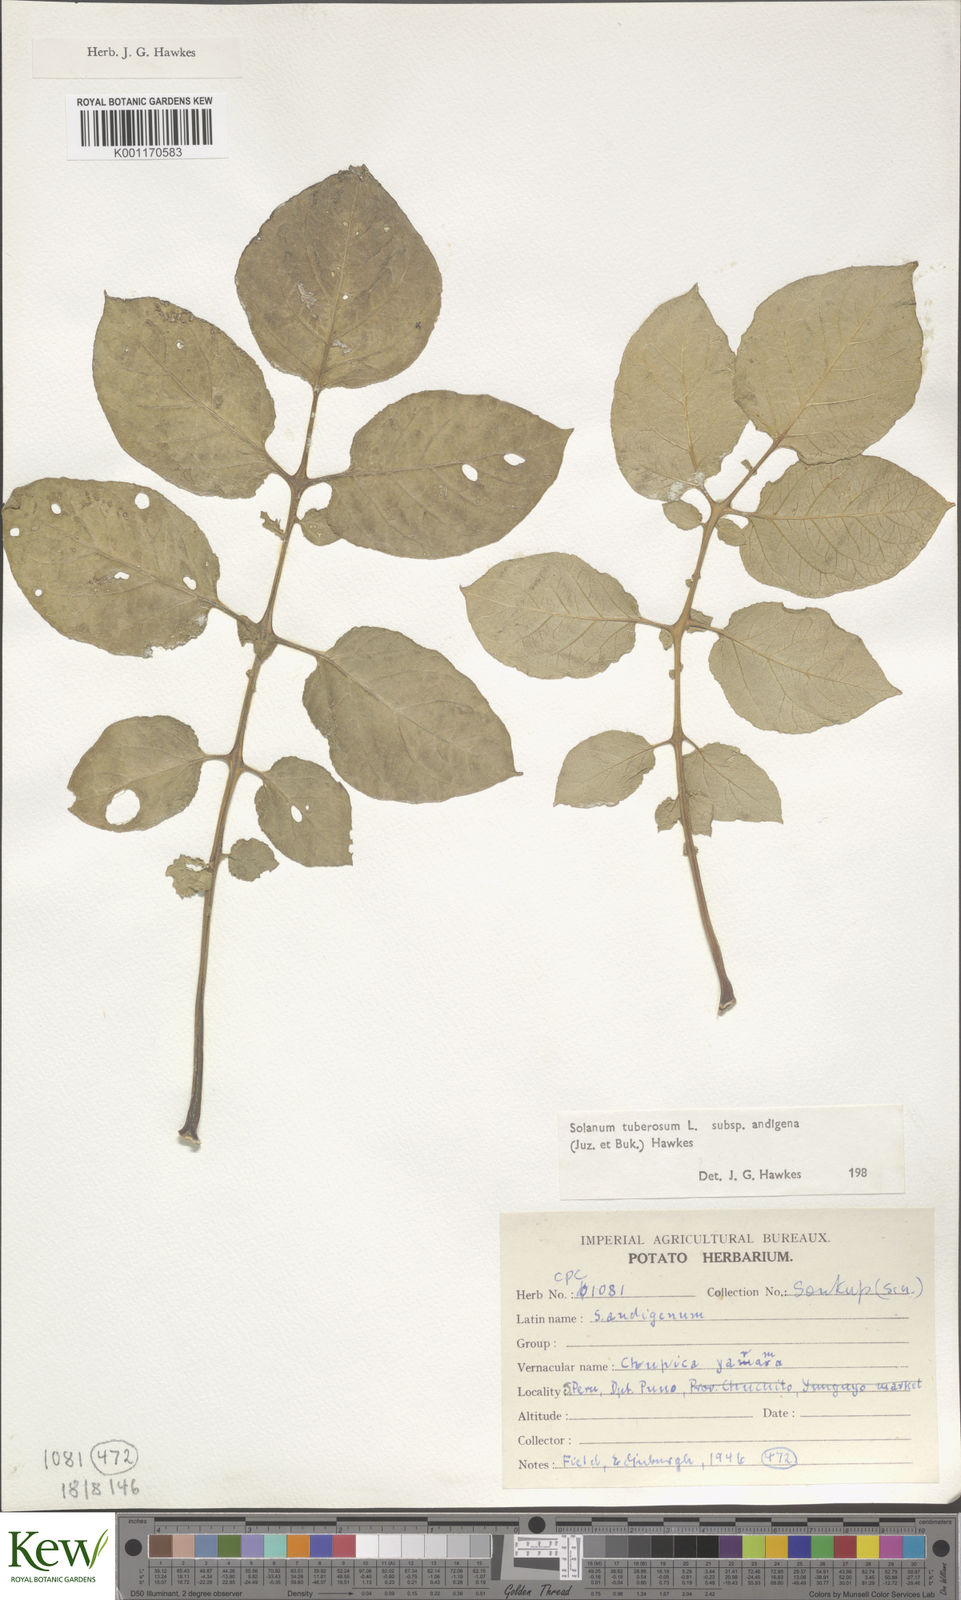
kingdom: Plantae
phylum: Tracheophyta
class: Magnoliopsida
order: Solanales
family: Solanaceae
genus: Solanum
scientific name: Solanum tuberosum
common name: Potato
